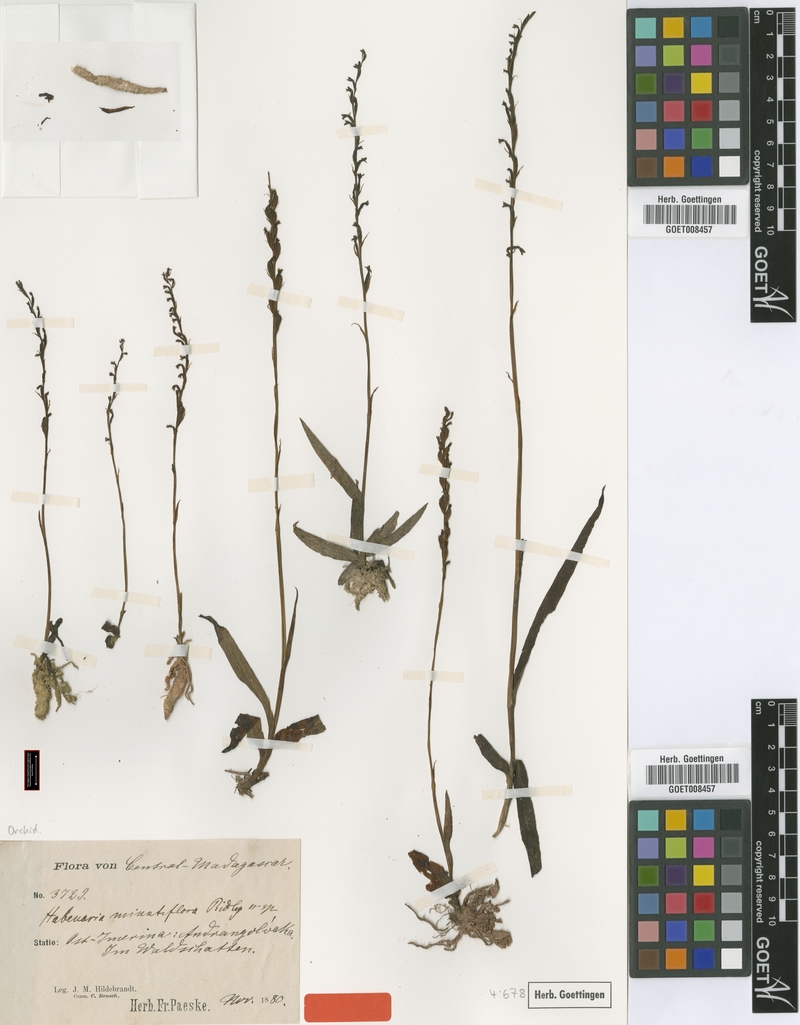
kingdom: Plantae
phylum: Tracheophyta
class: Liliopsida
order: Asparagales
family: Orchidaceae
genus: Benthamia
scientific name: Benthamia africana
